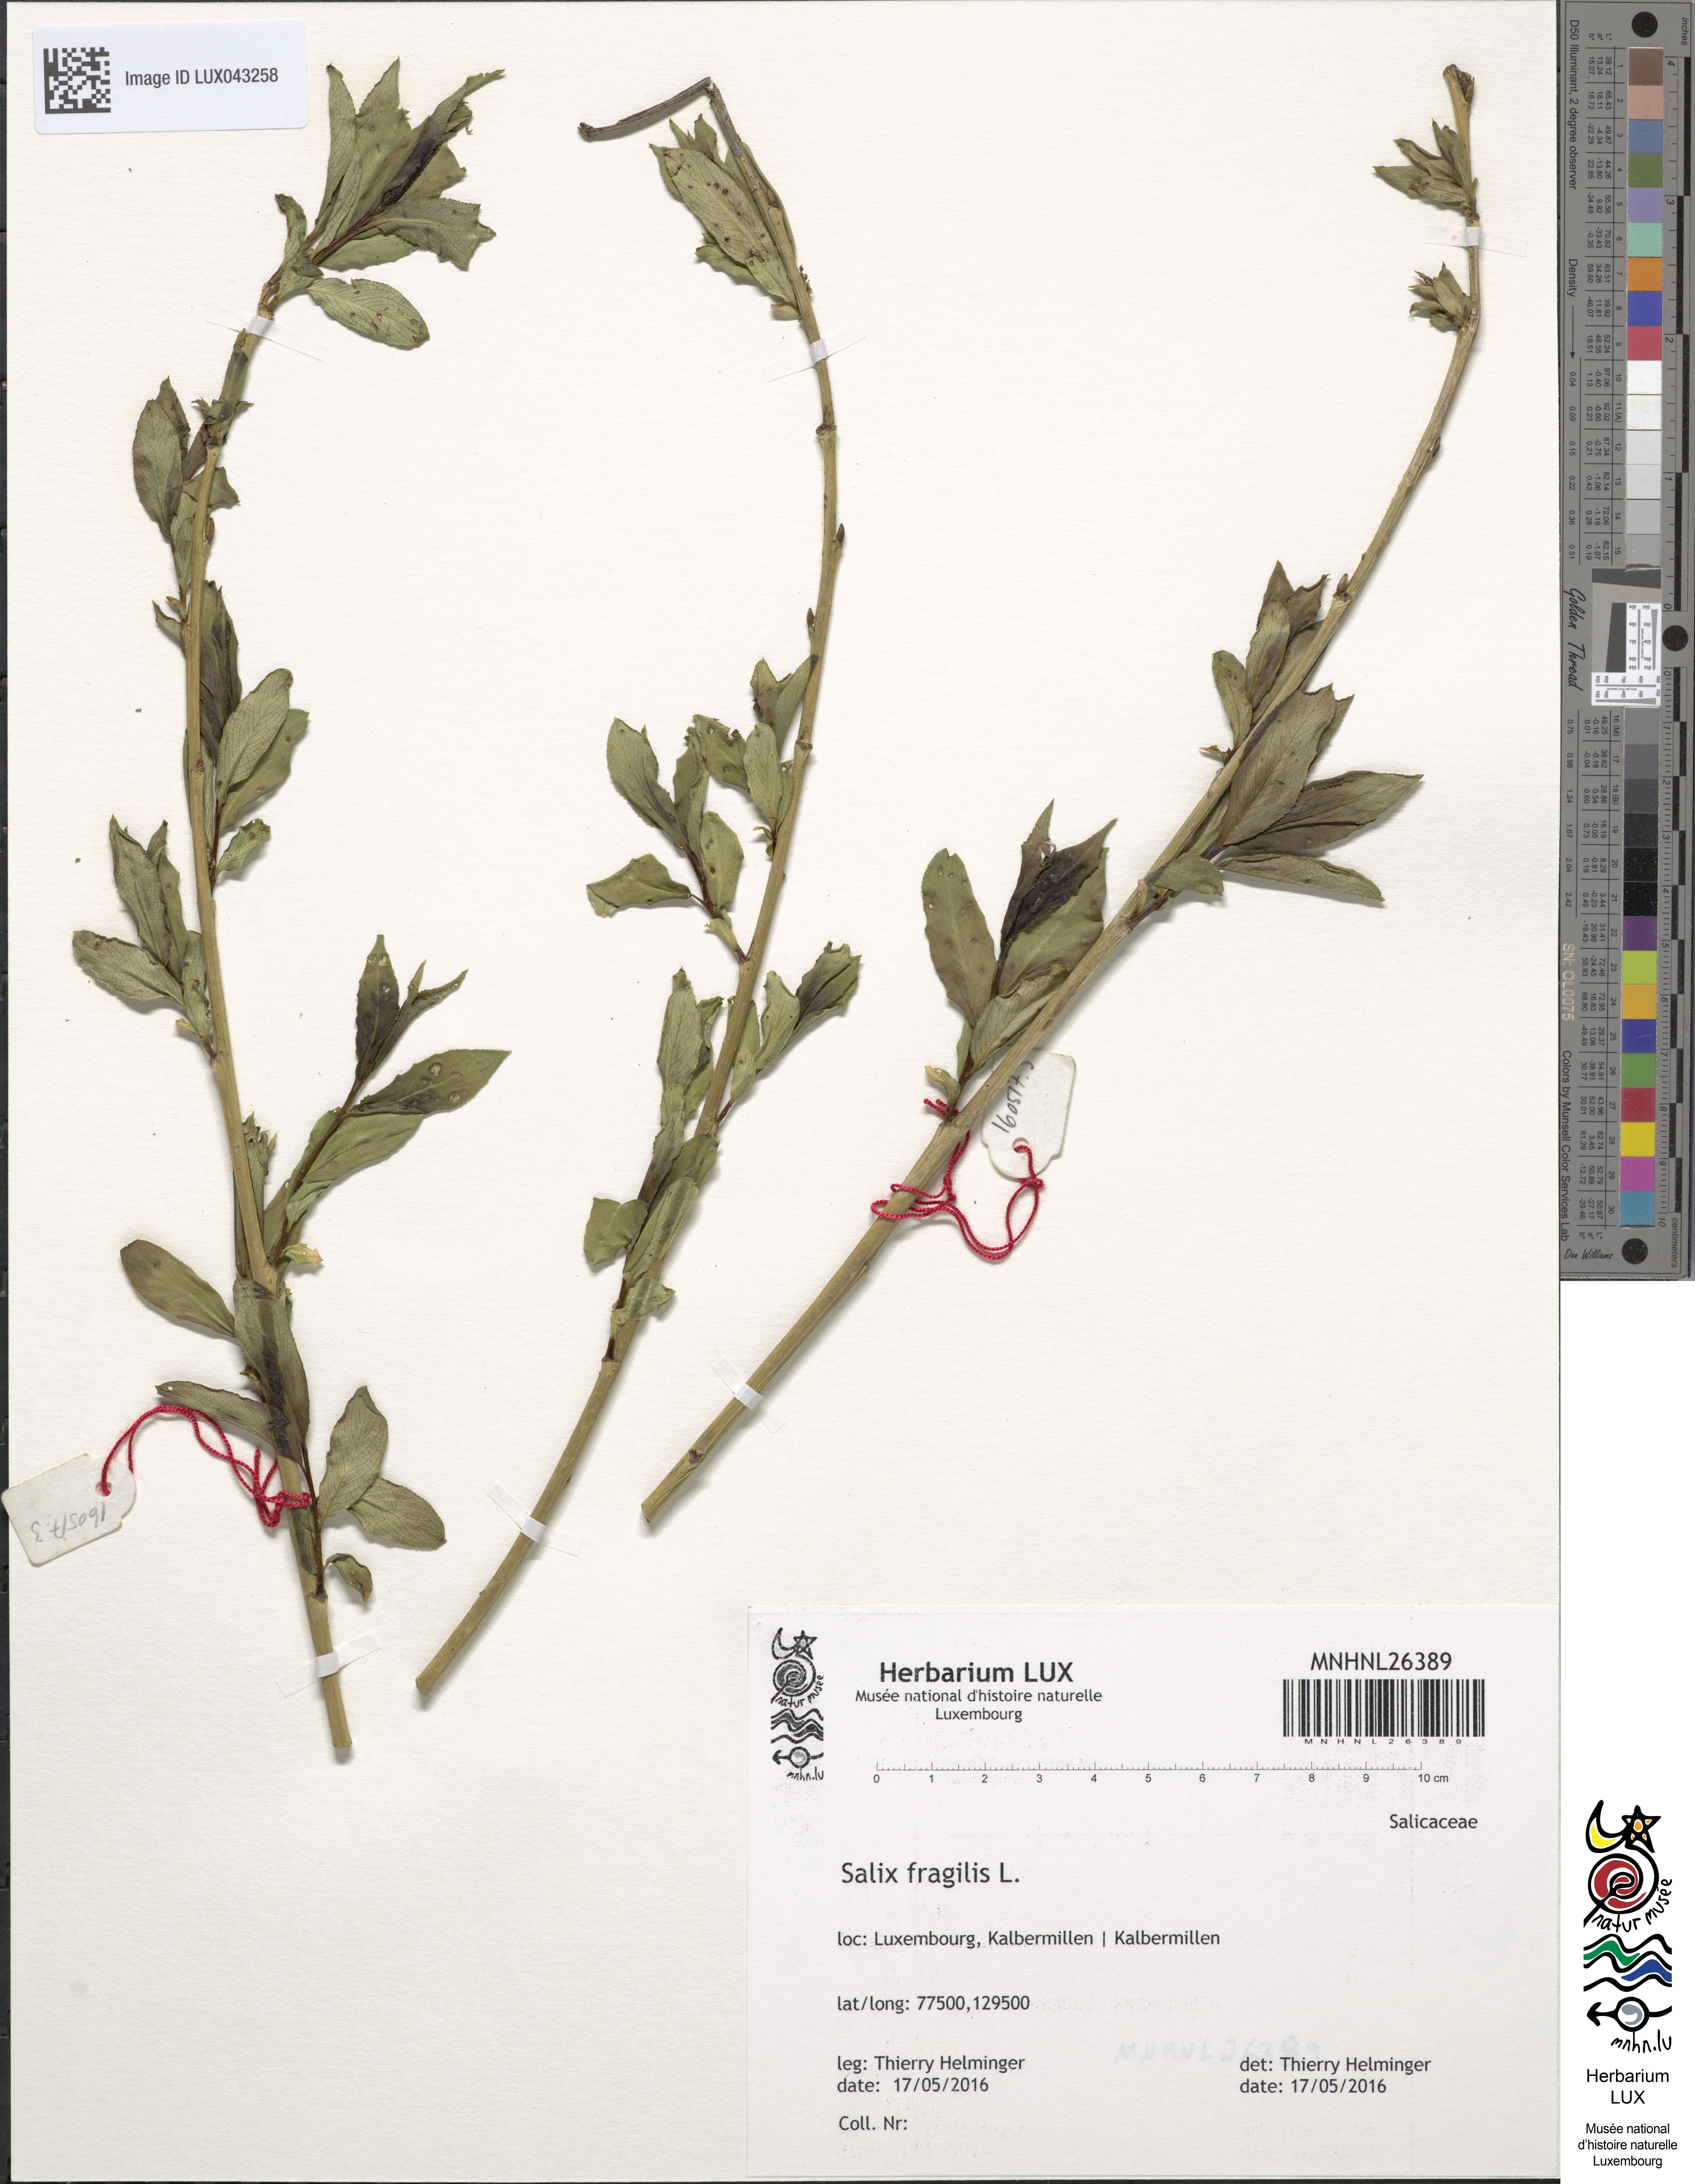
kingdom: Plantae
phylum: Tracheophyta
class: Magnoliopsida
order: Malpighiales
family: Salicaceae
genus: Salix
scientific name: Salix fragilis
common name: Crack willow
